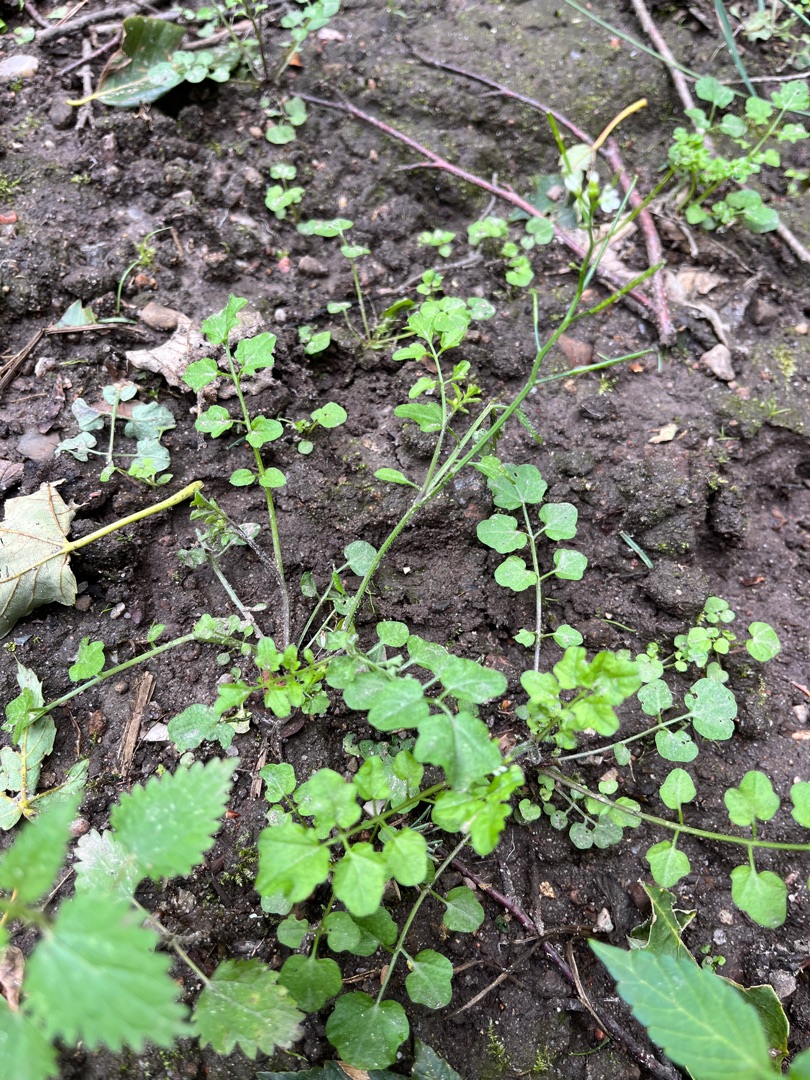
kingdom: Plantae
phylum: Tracheophyta
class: Magnoliopsida
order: Brassicales
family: Brassicaceae
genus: Cardamine
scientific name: Cardamine flexuosa
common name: Skov-springklap
